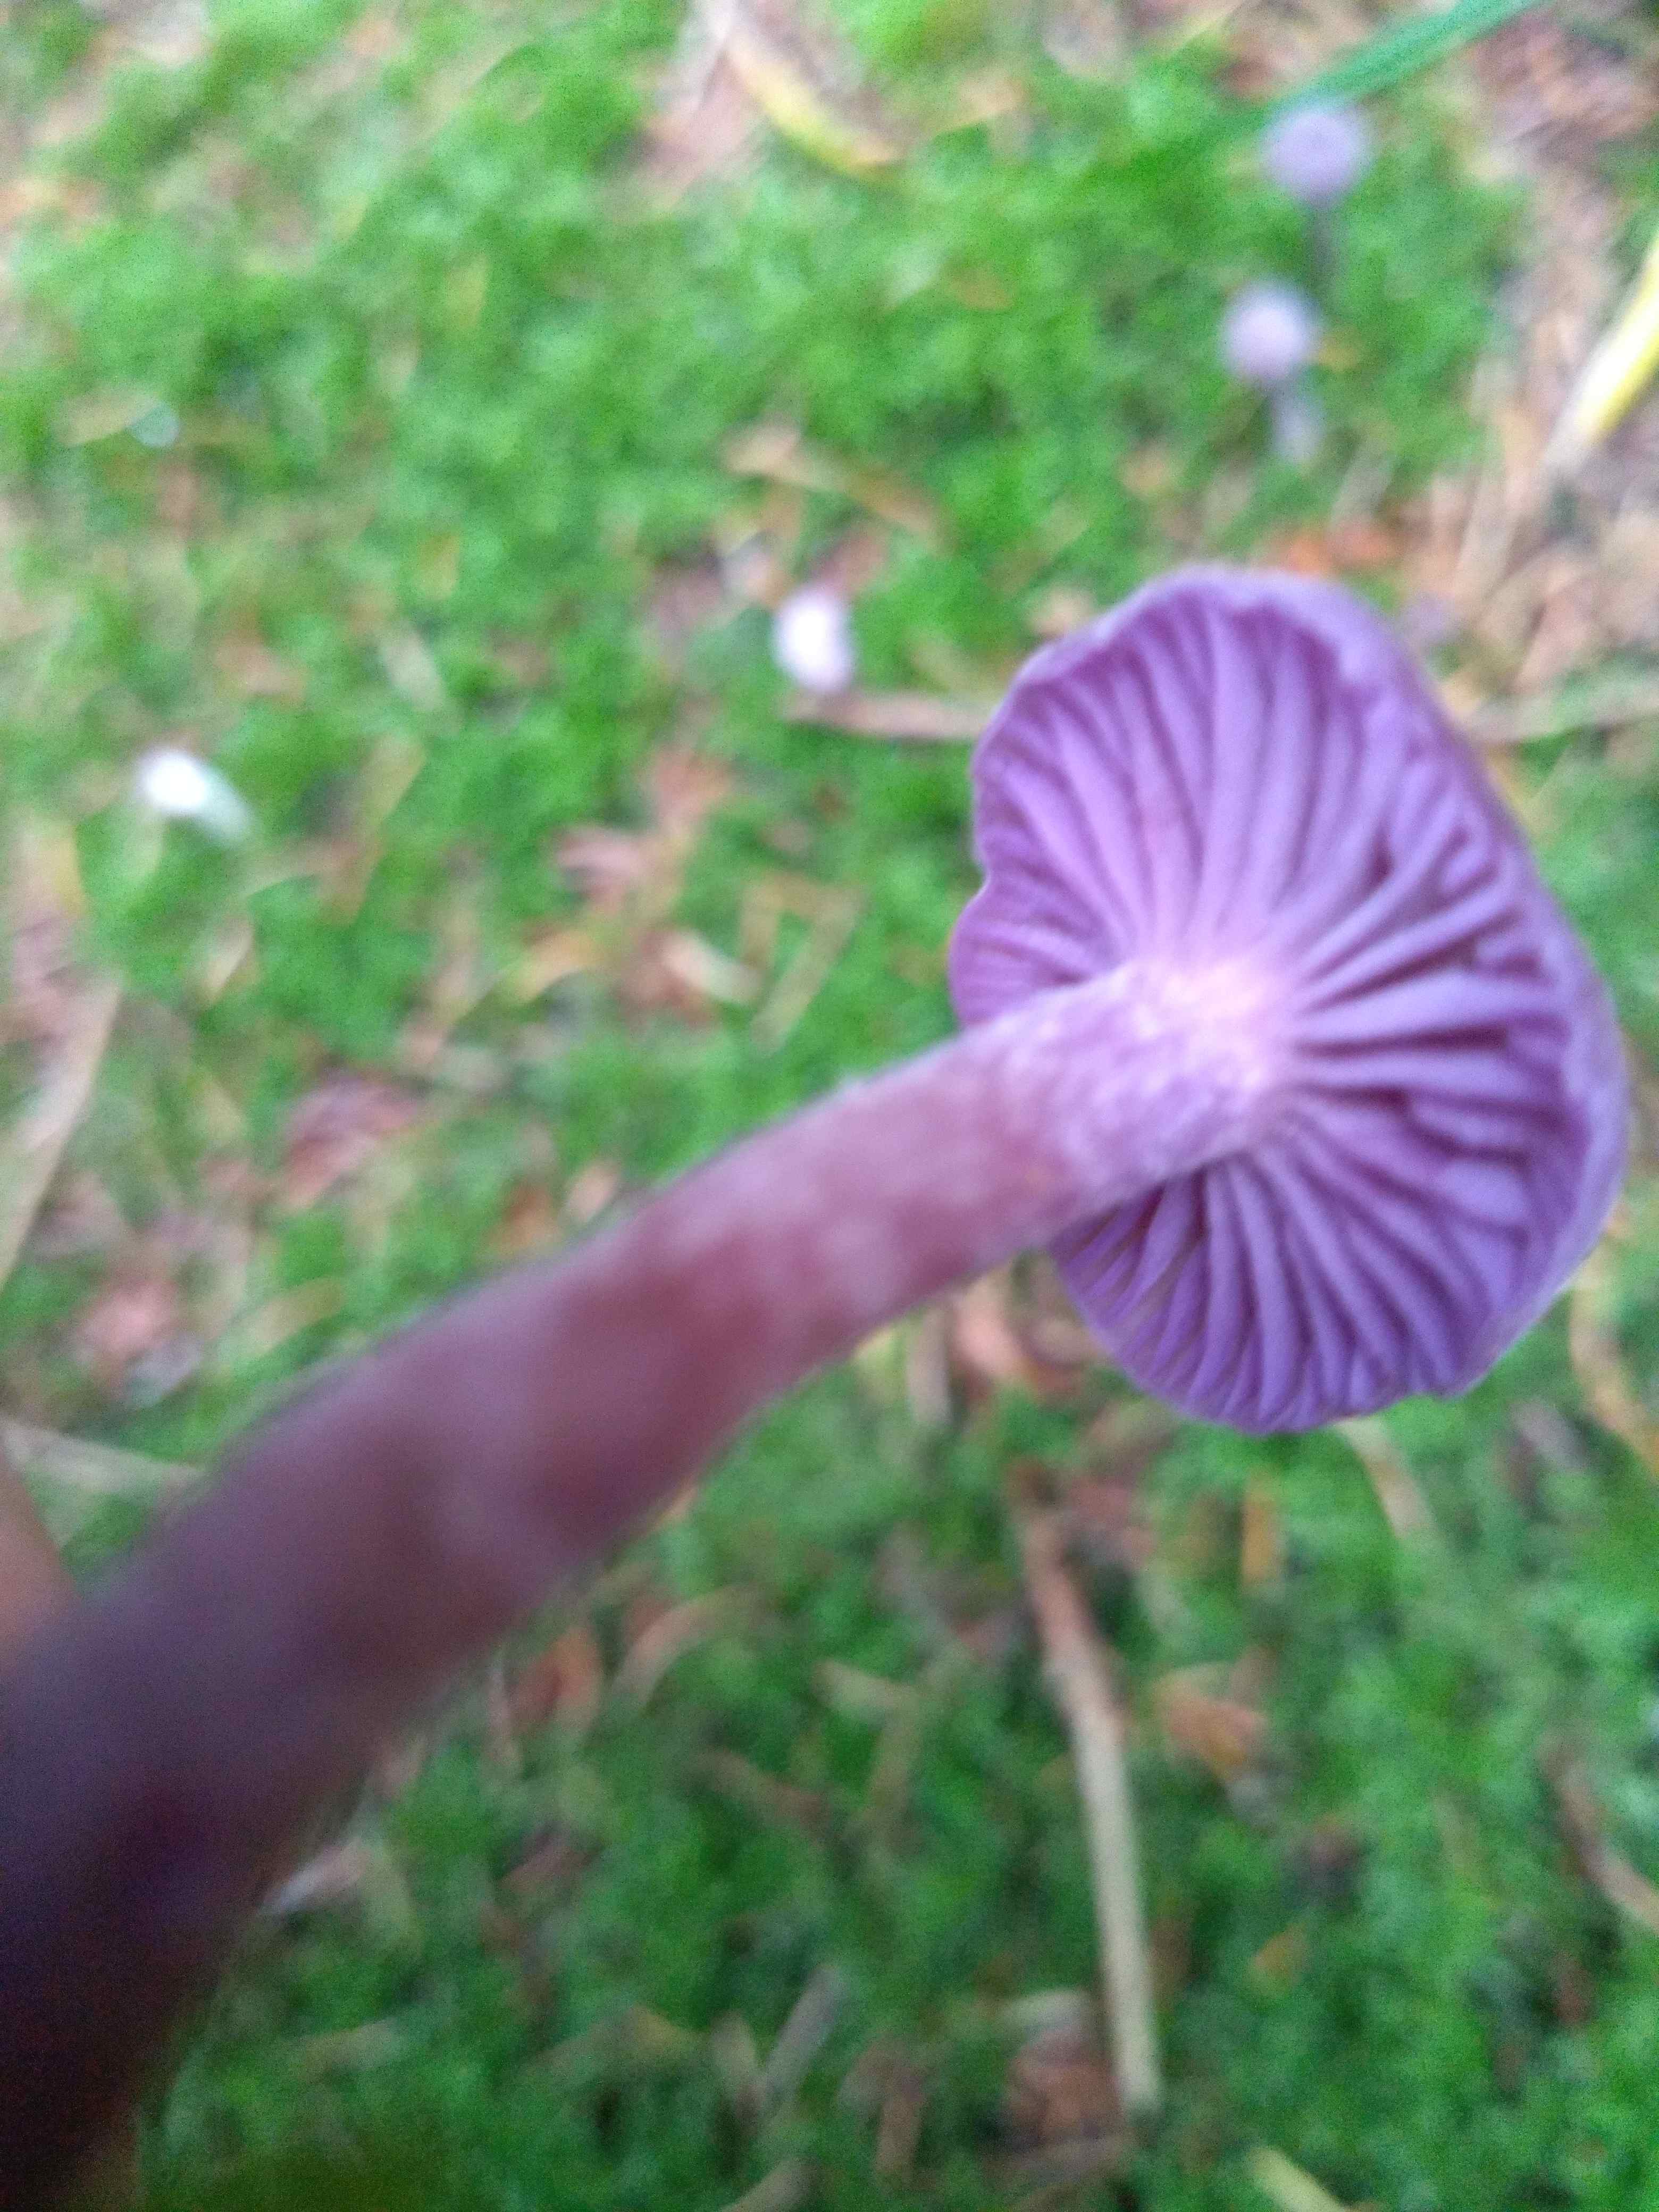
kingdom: Fungi
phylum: Basidiomycota
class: Agaricomycetes
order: Agaricales
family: Hydnangiaceae
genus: Laccaria
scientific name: Laccaria amethystina
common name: violet ametysthat
